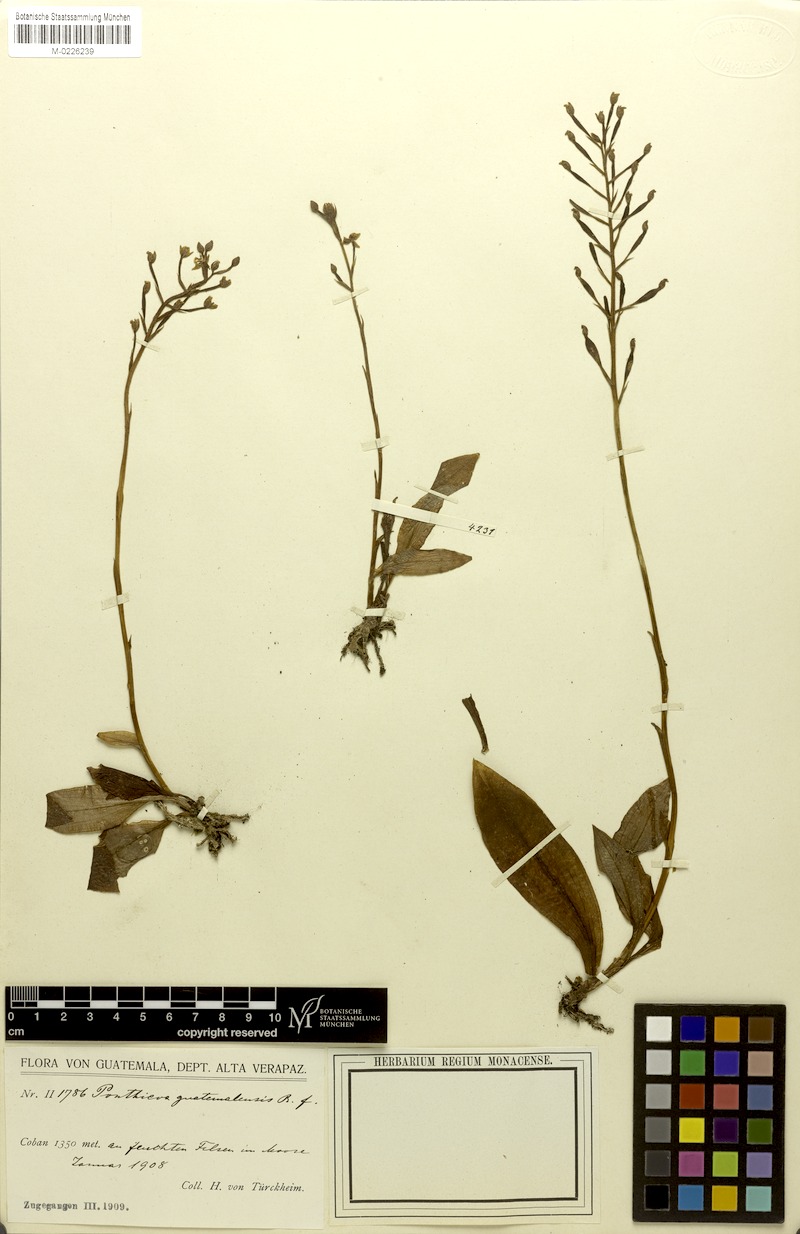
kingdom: Plantae
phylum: Tracheophyta
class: Liliopsida
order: Asparagales
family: Orchidaceae
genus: Ponthieva
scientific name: Ponthieva racemosa
